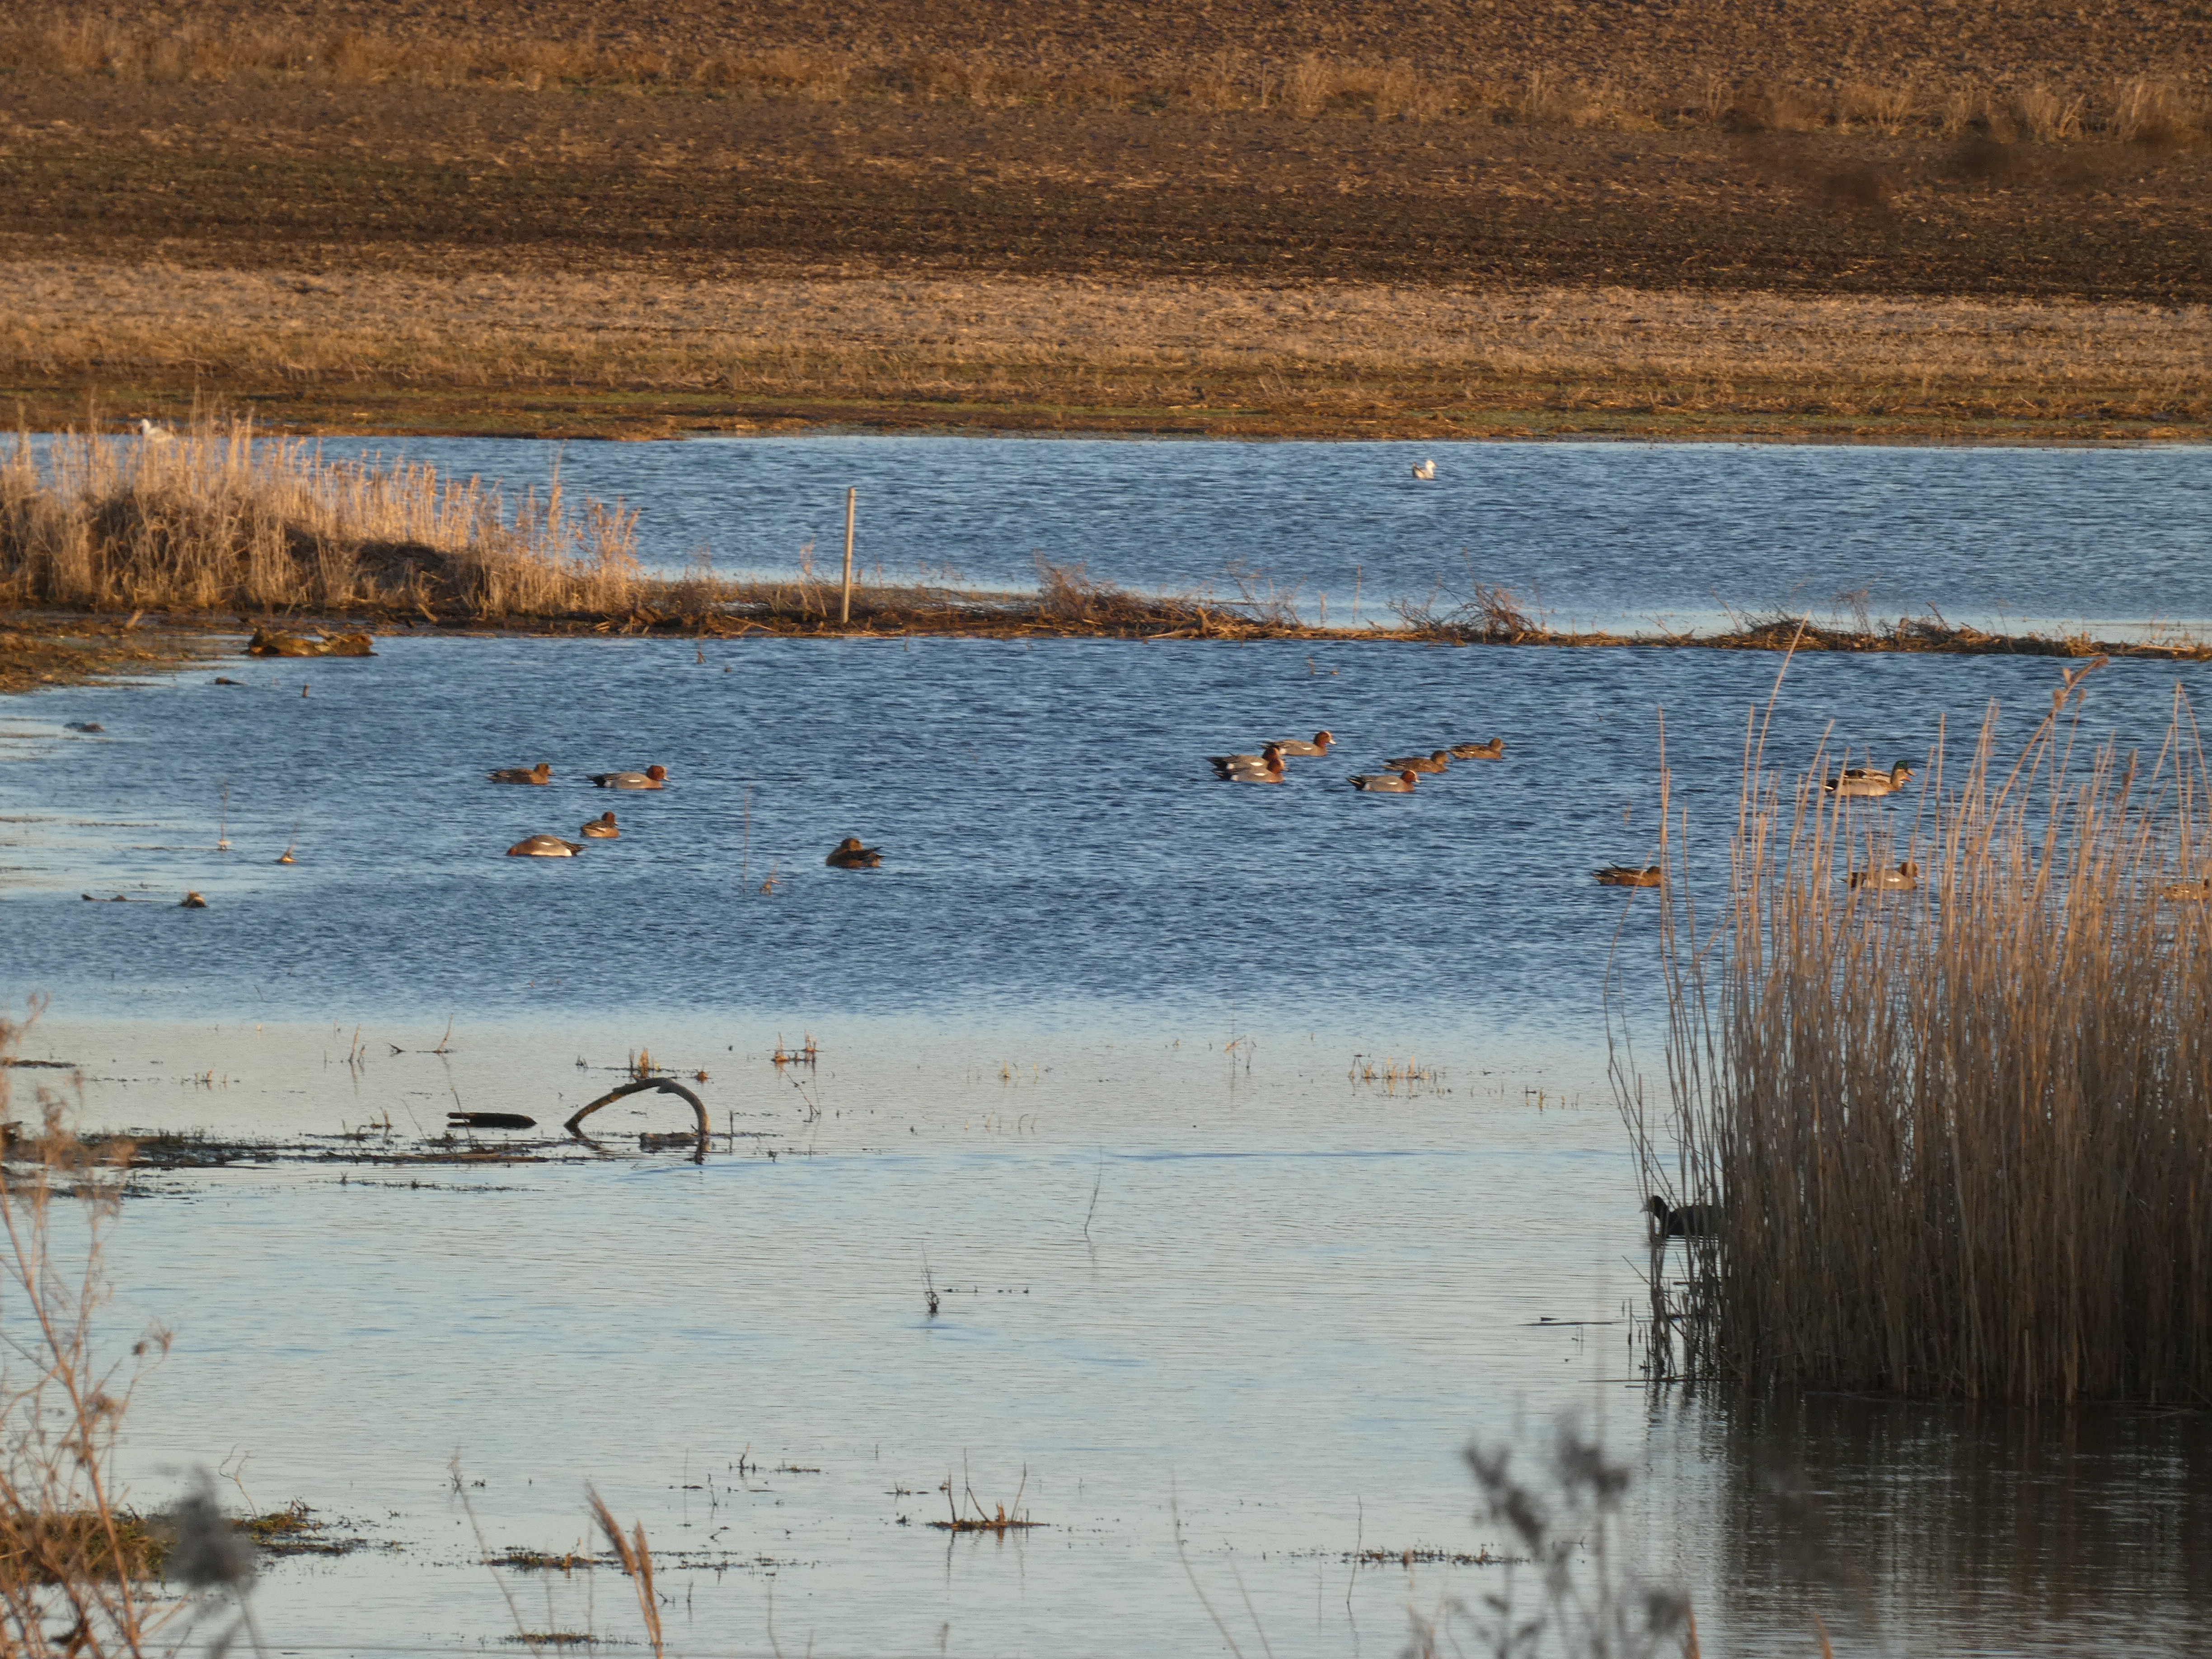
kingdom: Animalia
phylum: Chordata
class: Aves
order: Anseriformes
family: Anatidae
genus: Mareca
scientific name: Mareca penelope
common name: Pibeand
